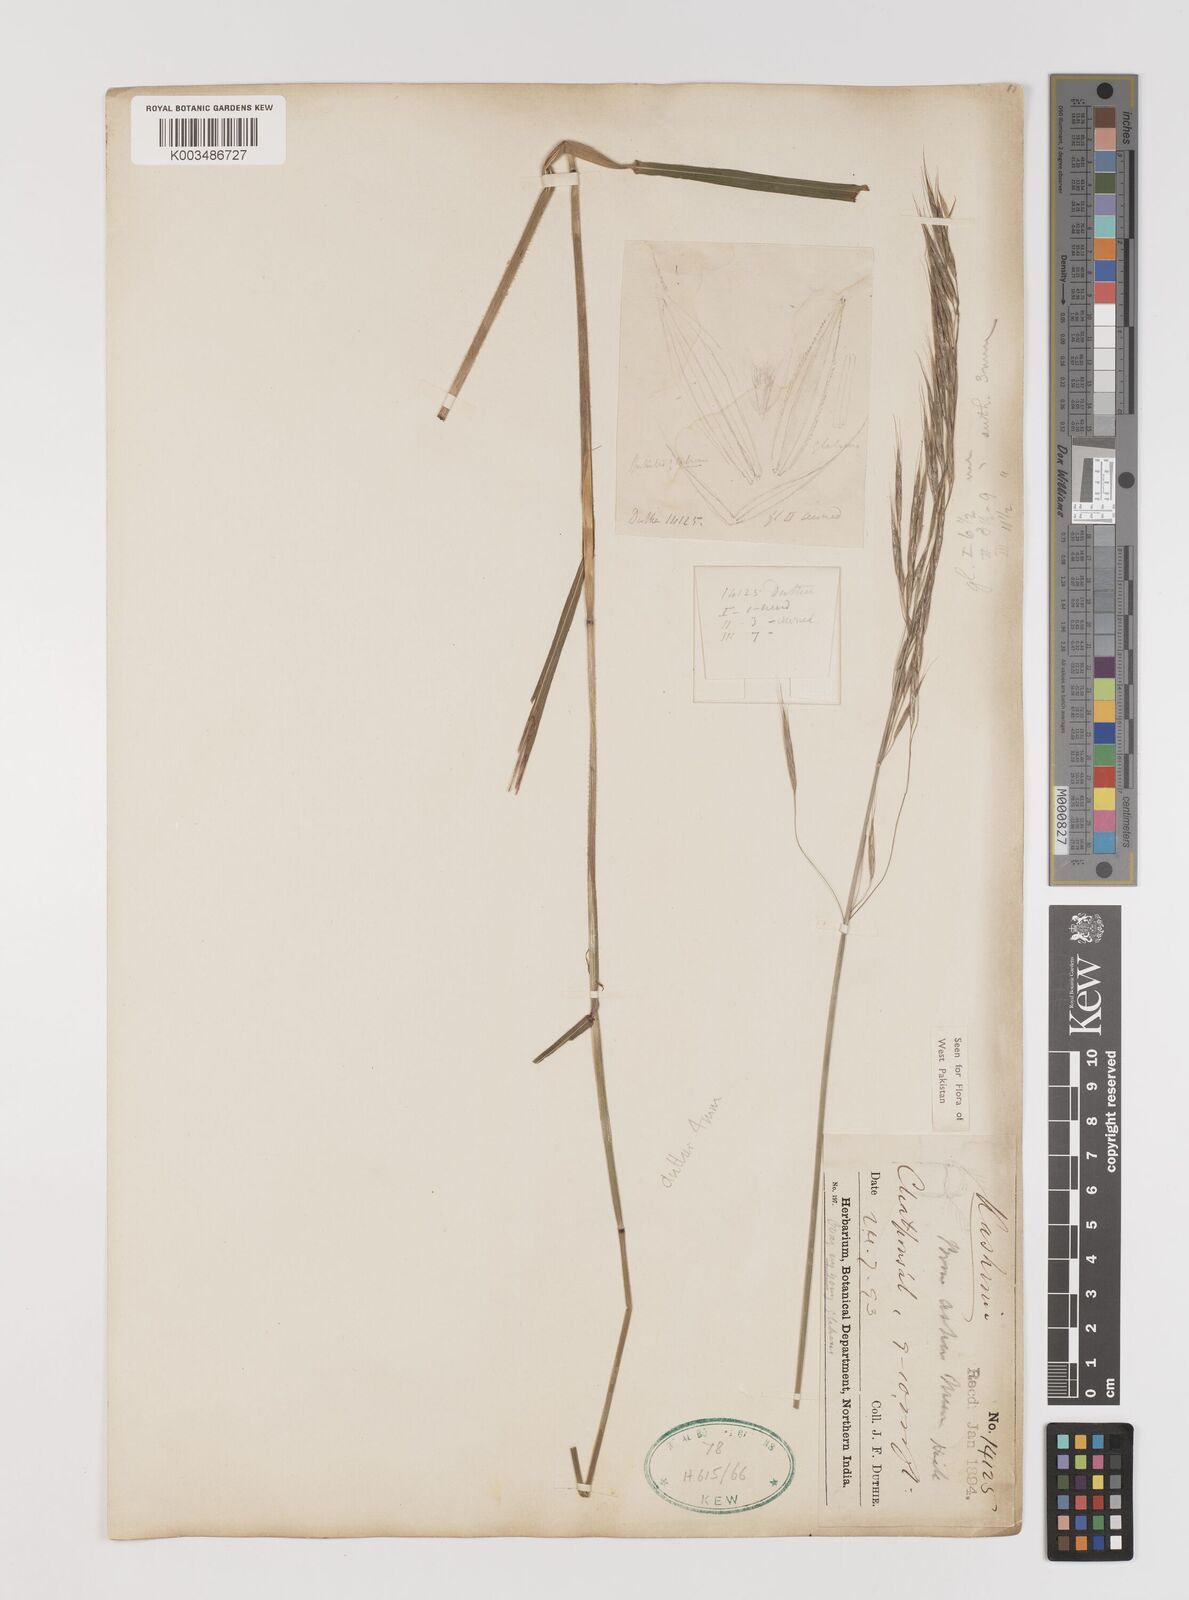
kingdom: Plantae
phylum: Tracheophyta
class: Liliopsida
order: Poales
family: Poaceae
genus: Brachypodium
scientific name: Brachypodium retusum
